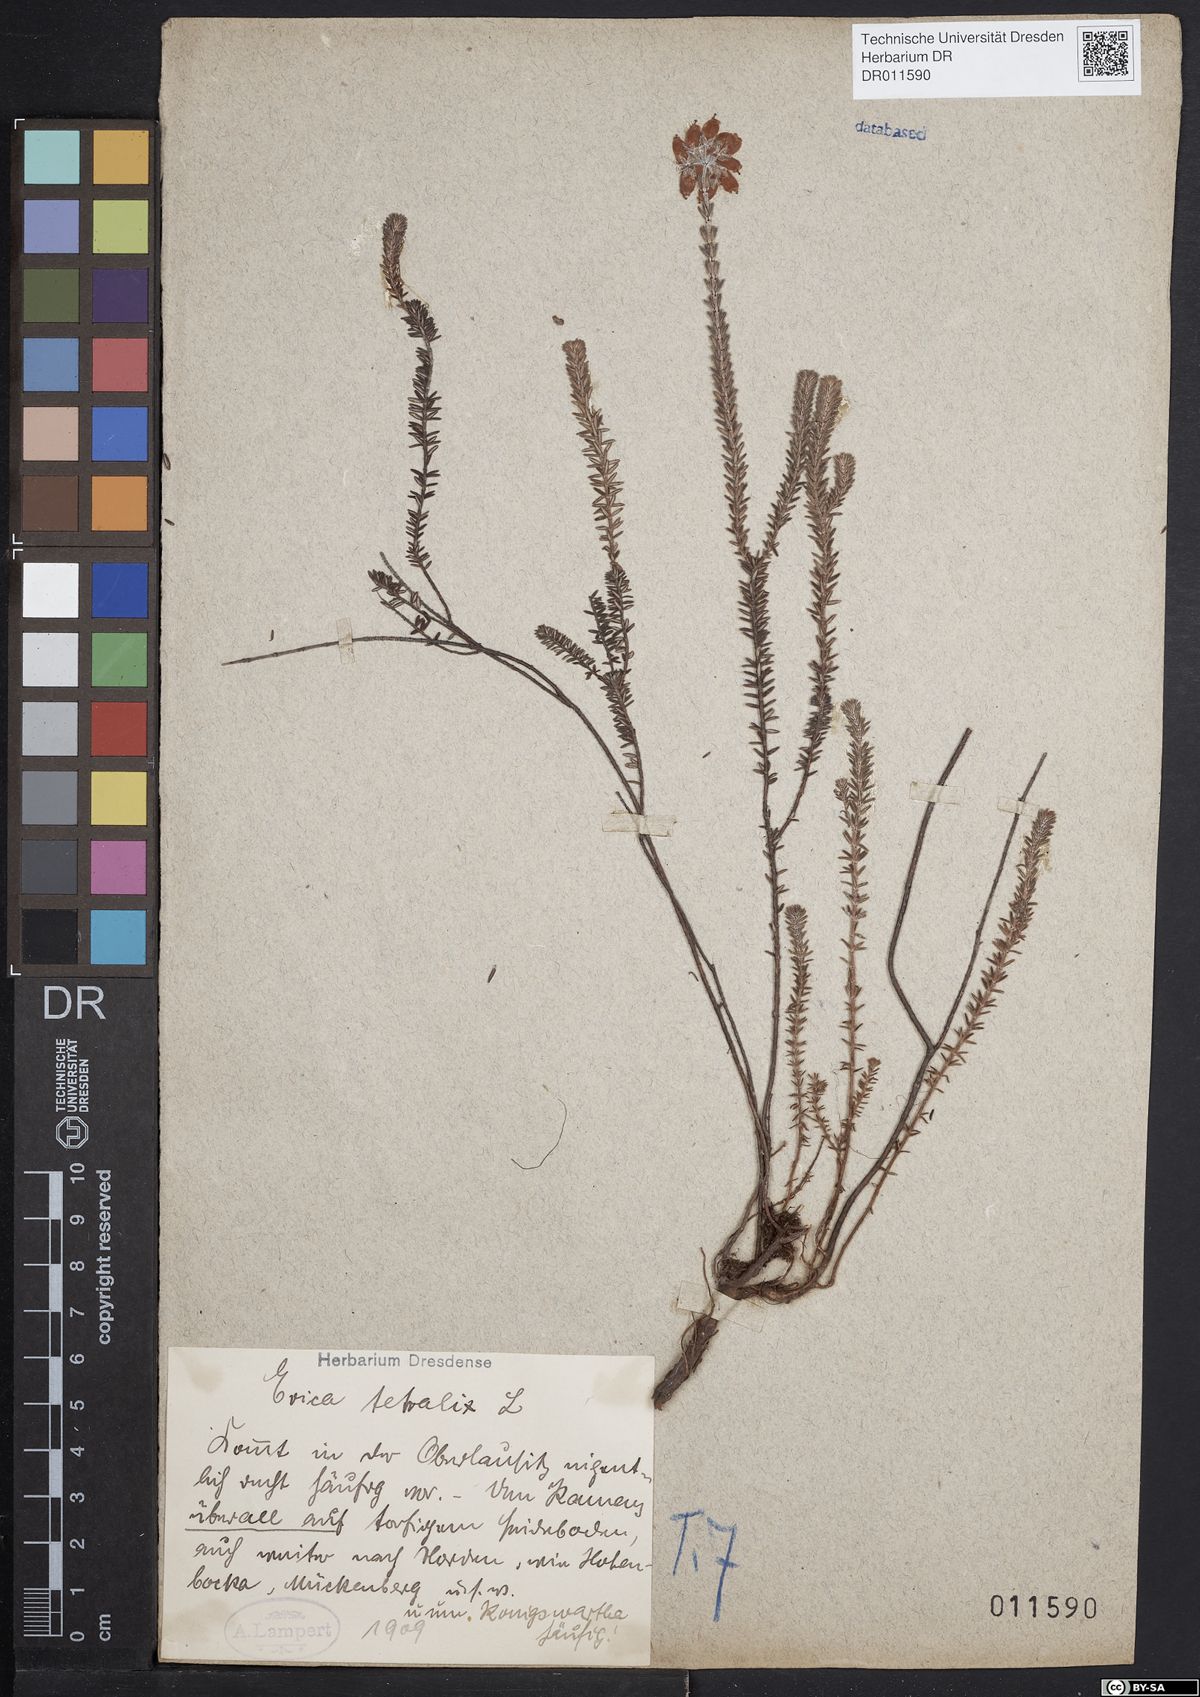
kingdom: Plantae
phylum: Tracheophyta
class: Magnoliopsida
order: Ericales
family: Ericaceae
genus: Erica
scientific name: Erica tetralix
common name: Cross-leaved heath
